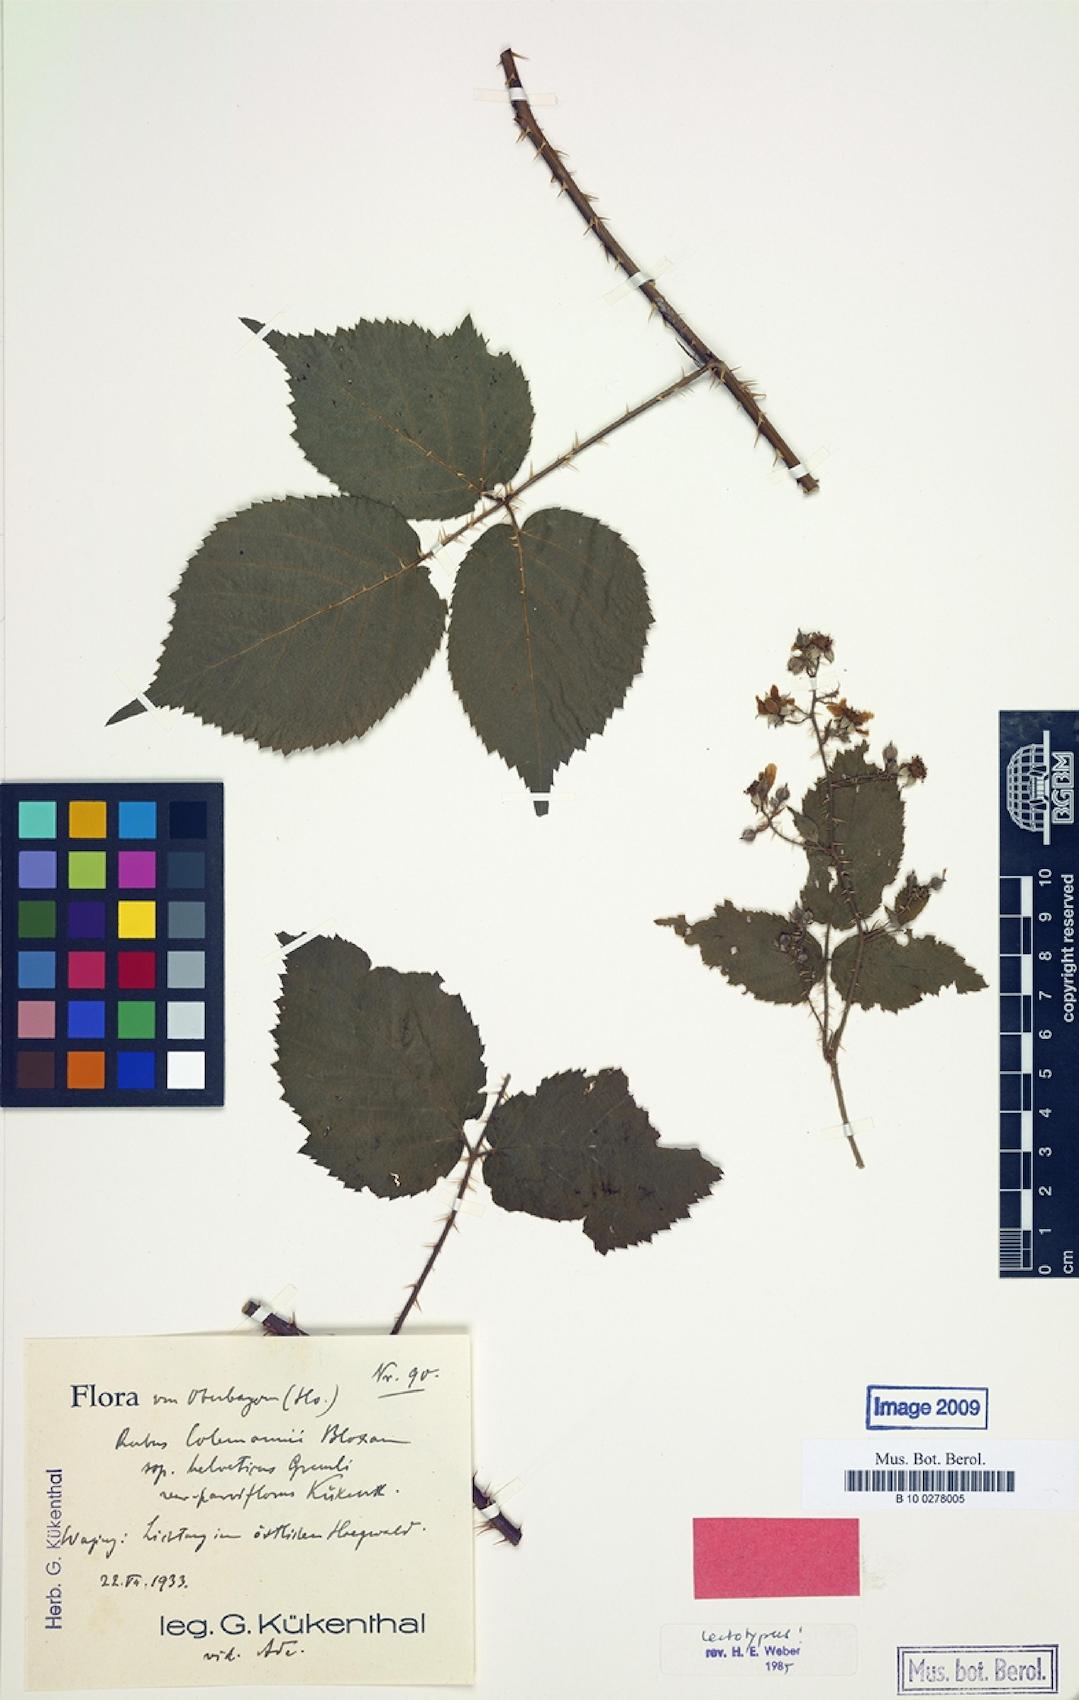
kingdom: Plantae
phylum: Tracheophyta
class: Magnoliopsida
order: Rosales
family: Rosaceae
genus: Rubus
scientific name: Rubus amphistrophos
